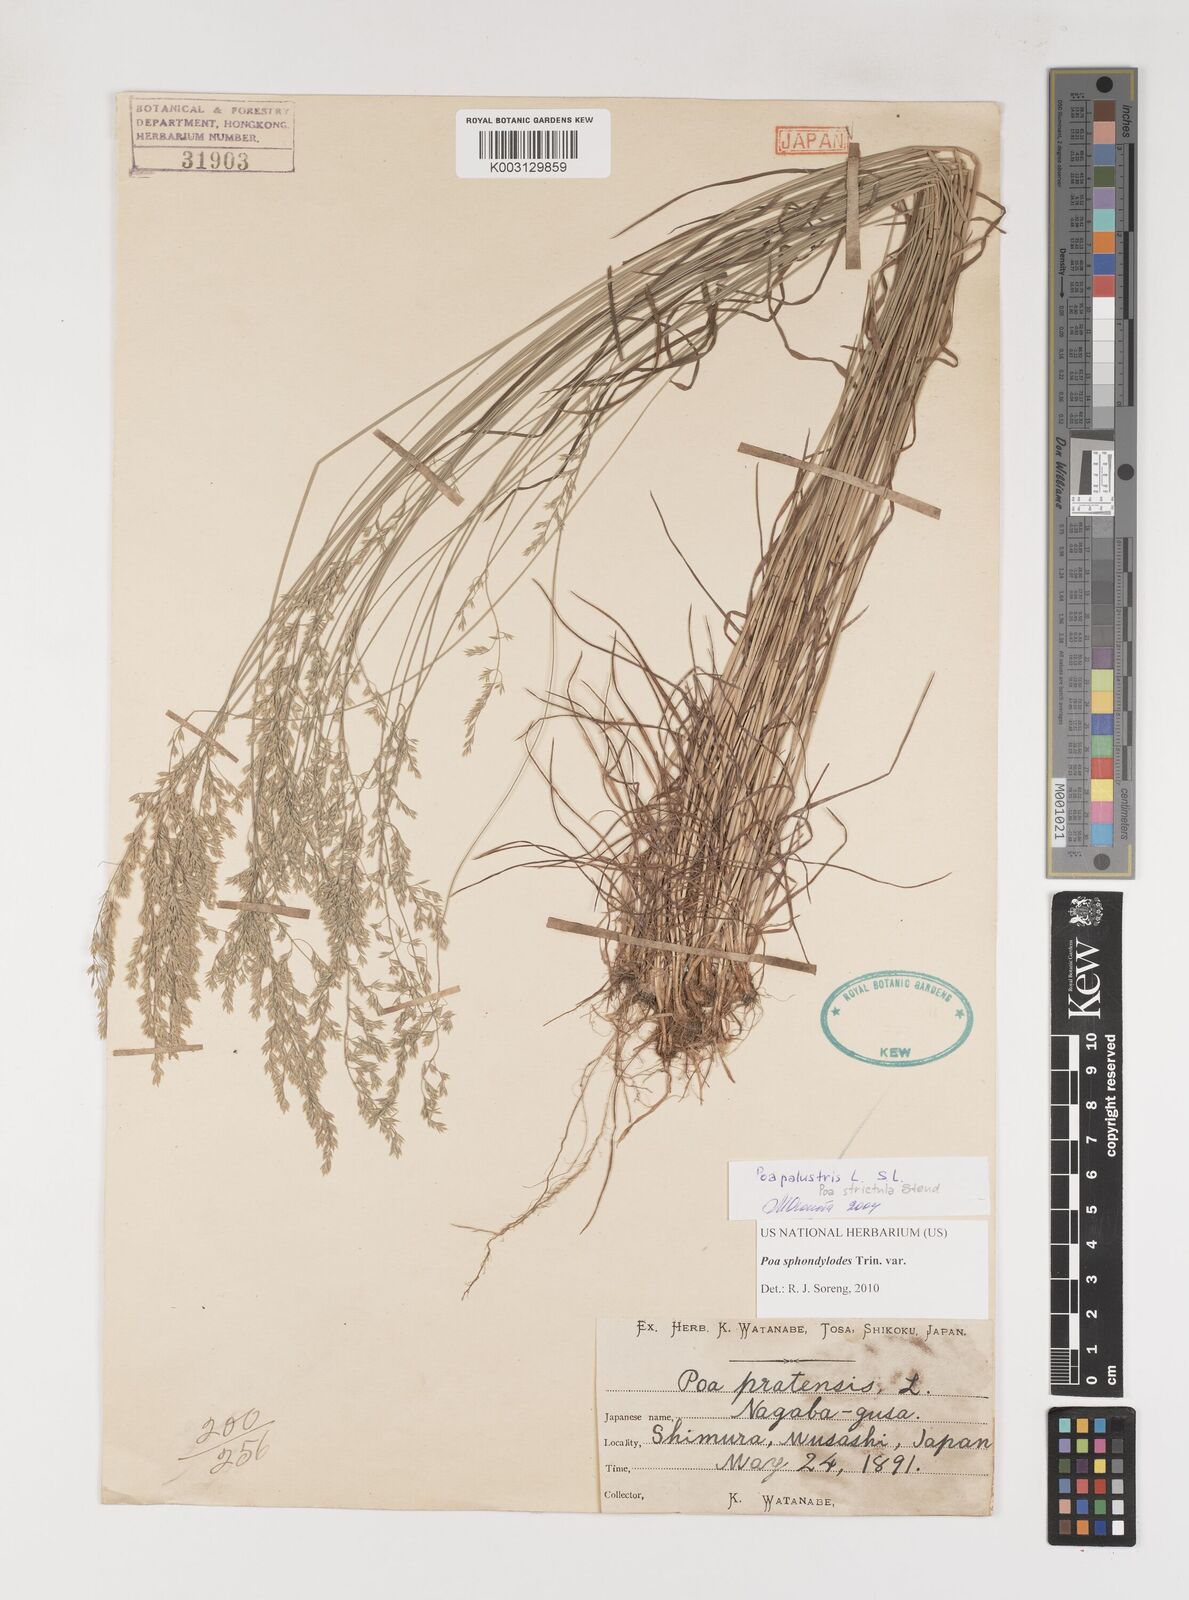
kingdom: Plantae
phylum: Tracheophyta
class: Liliopsida
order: Poales
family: Poaceae
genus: Poa
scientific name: Poa sphondylodes
